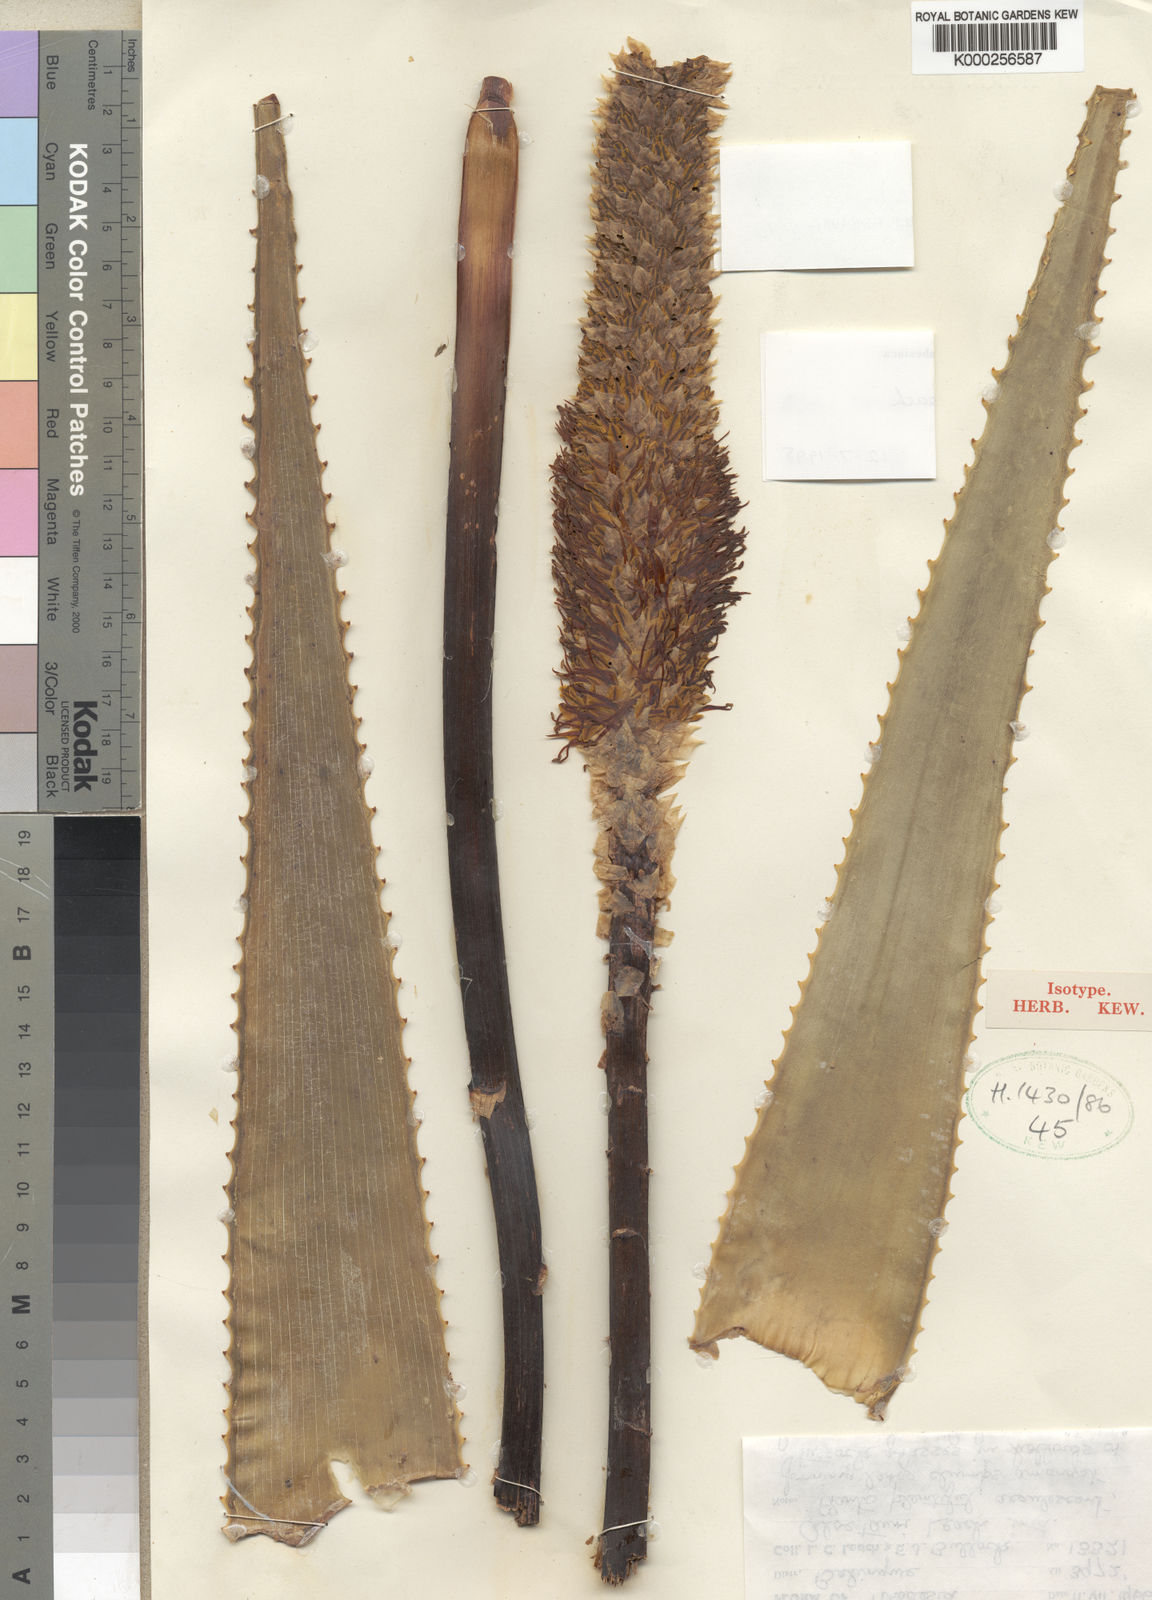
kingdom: Plantae
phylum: Tracheophyta
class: Liliopsida
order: Asparagales
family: Asphodelaceae
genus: Aloe
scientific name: Aloe tauri
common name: Bullock's bottle brush aloe
